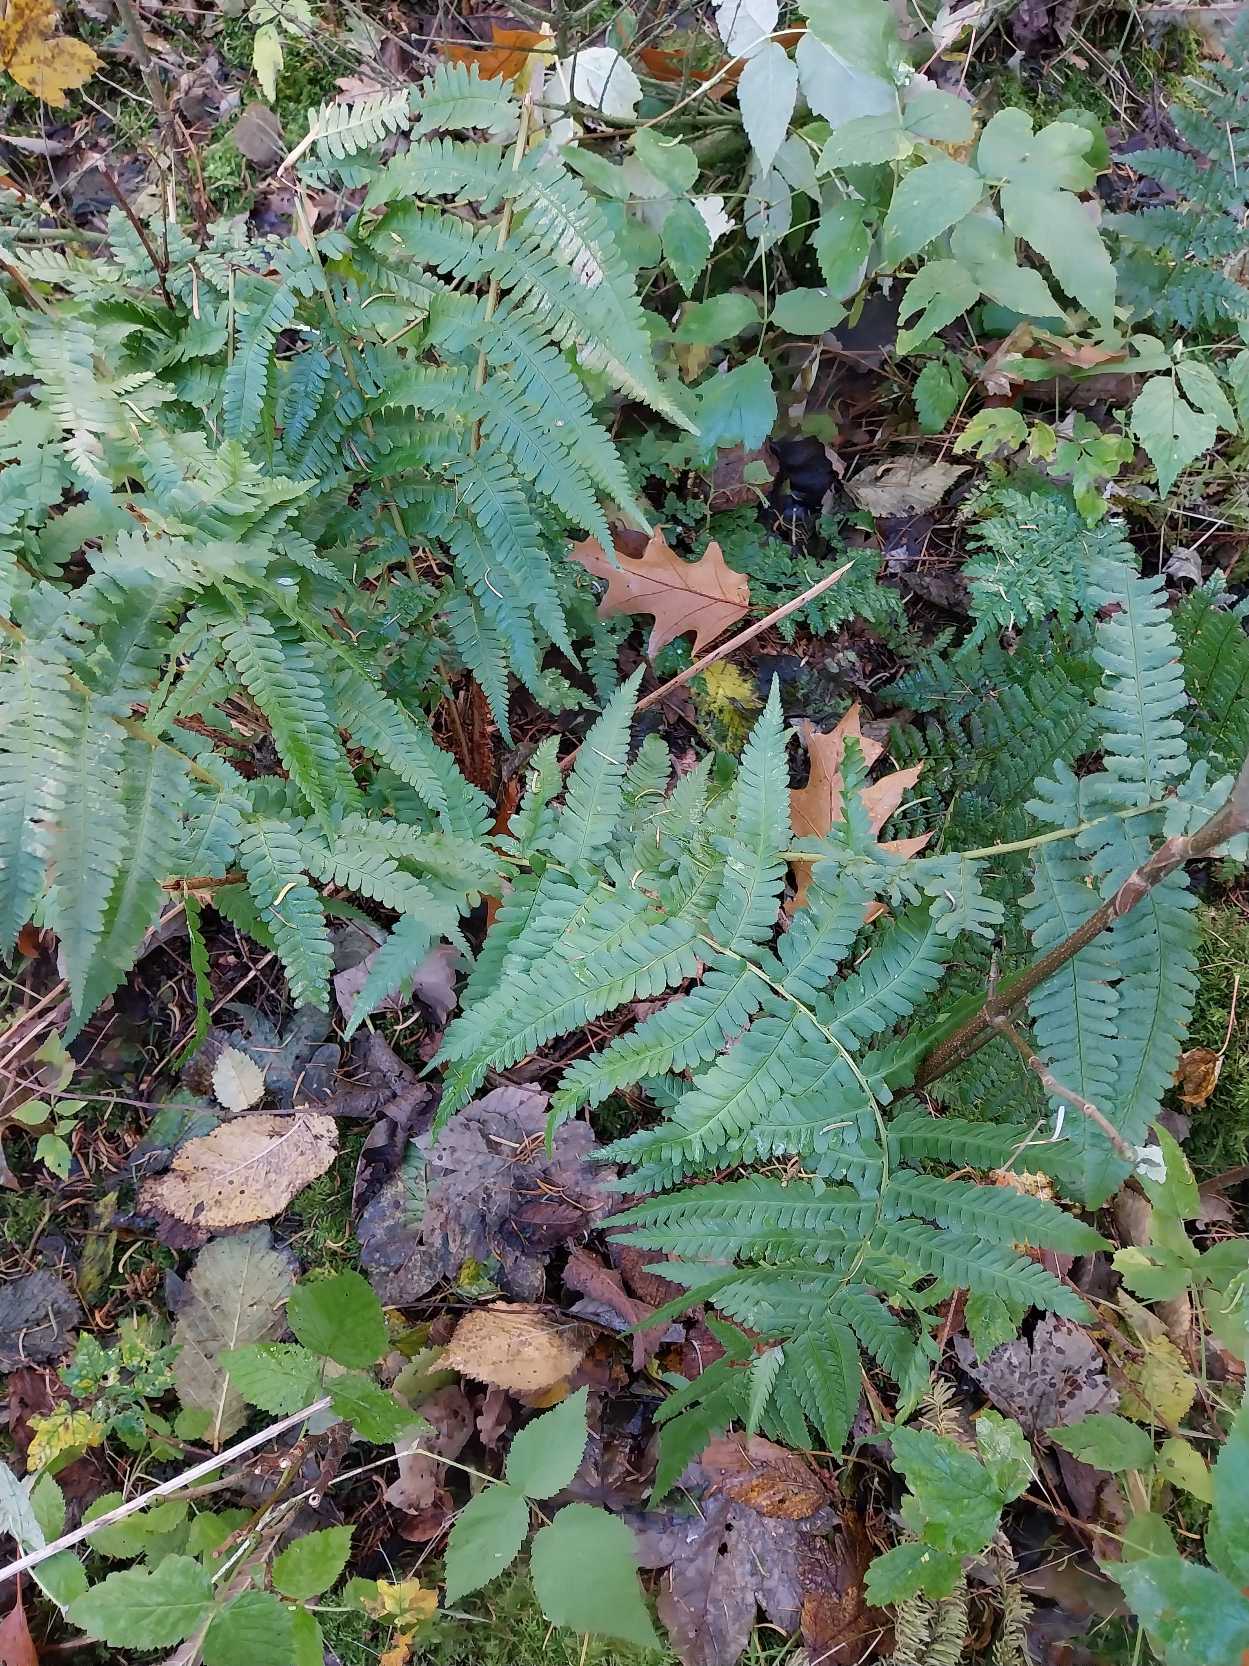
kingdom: Plantae
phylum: Tracheophyta
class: Polypodiopsida
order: Polypodiales
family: Dryopteridaceae
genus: Dryopteris
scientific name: Dryopteris filix-mas
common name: Almindelig mangeløv
